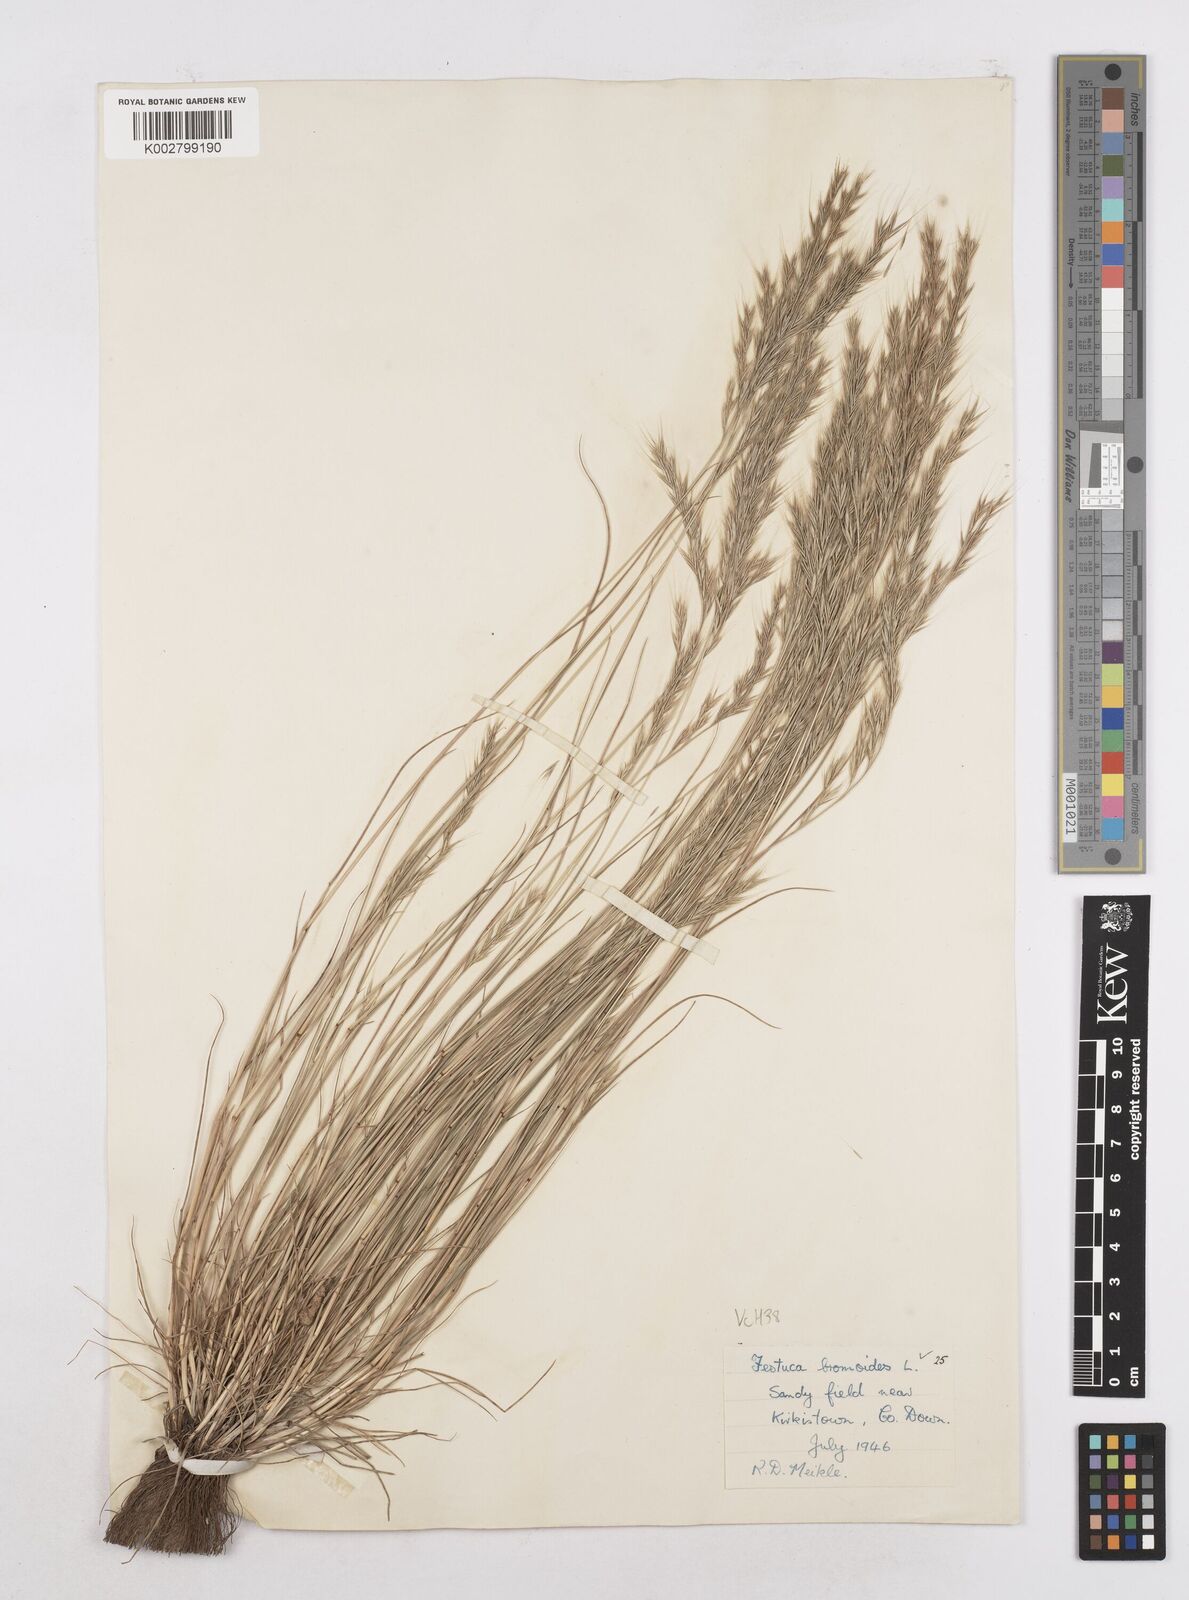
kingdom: Plantae
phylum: Tracheophyta
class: Liliopsida
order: Poales
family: Poaceae
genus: Festuca
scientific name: Festuca bromoides
